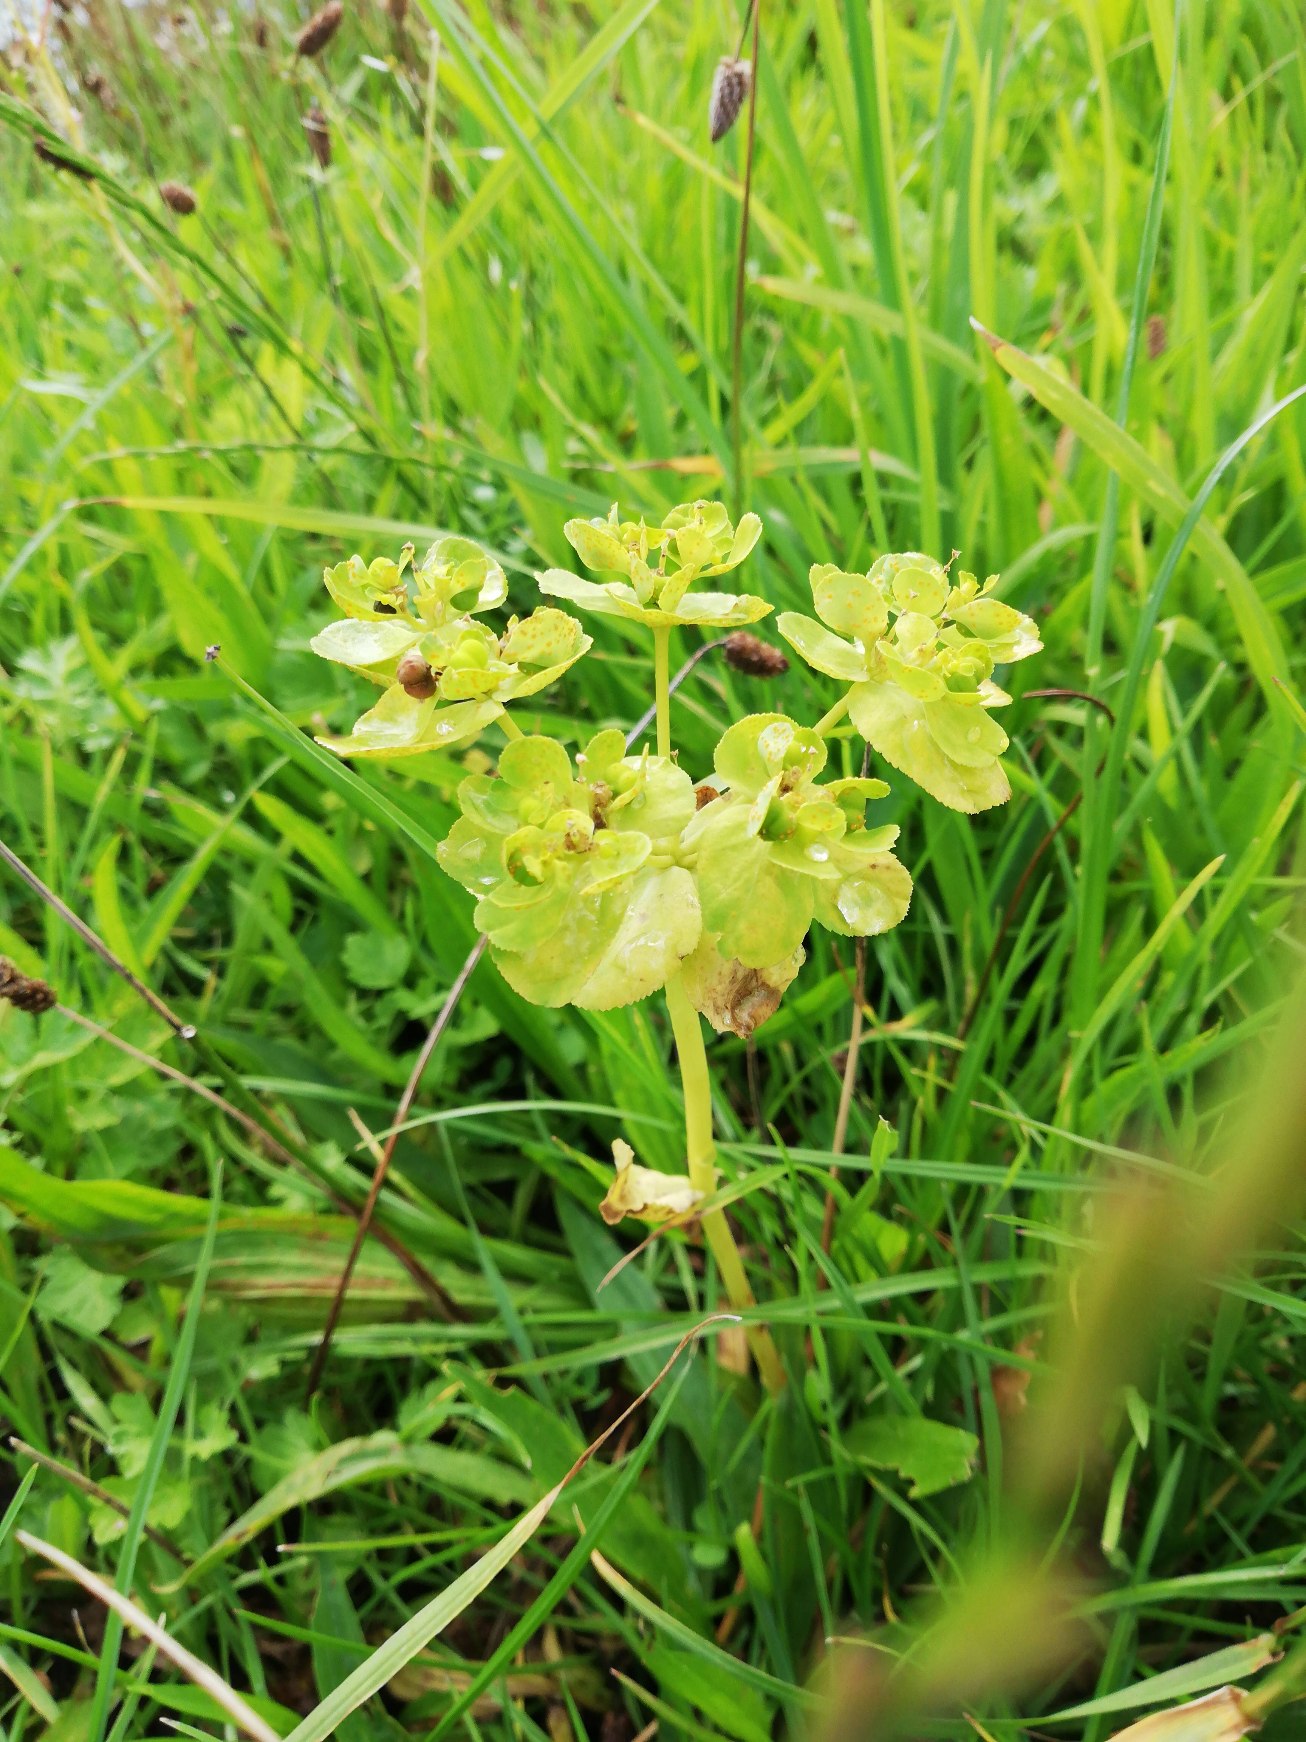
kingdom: Plantae
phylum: Tracheophyta
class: Magnoliopsida
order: Malpighiales
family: Euphorbiaceae
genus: Euphorbia
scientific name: Euphorbia helioscopia
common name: Skærm-vortemælk
